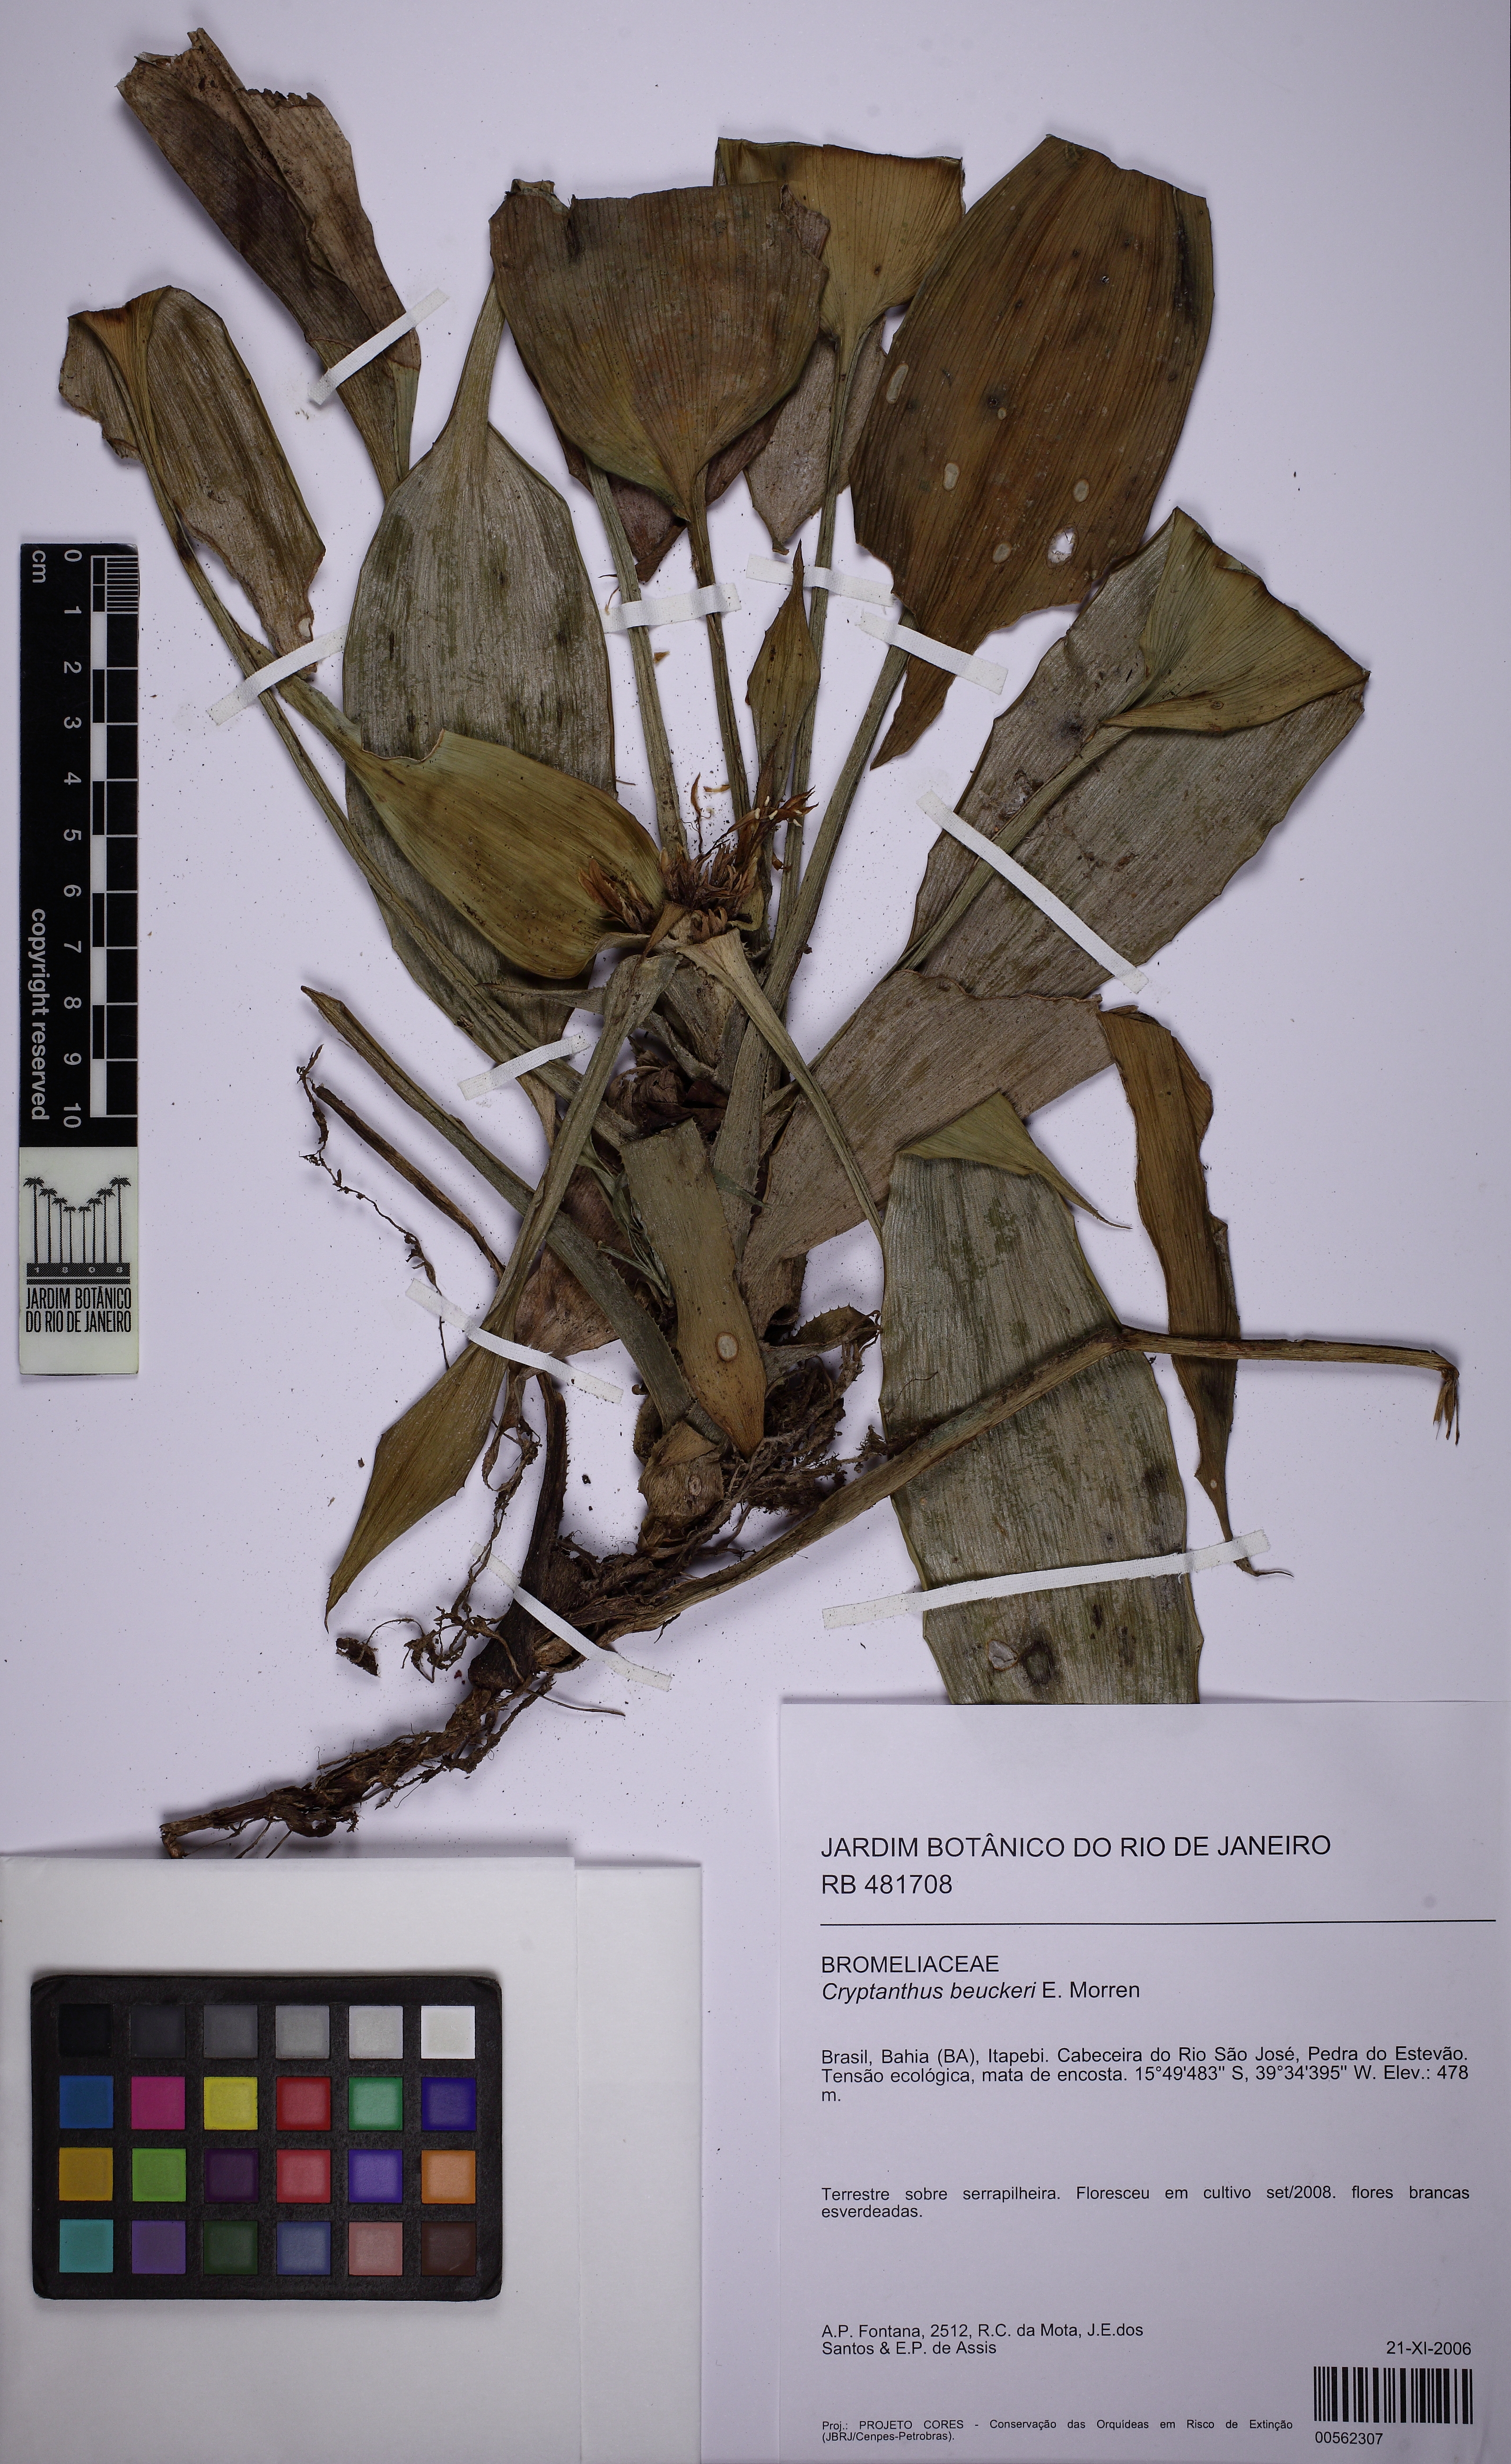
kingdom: Plantae
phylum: Tracheophyta
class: Liliopsida
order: Poales
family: Bromeliaceae
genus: Cryptanthus
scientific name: Cryptanthus beuckeri
